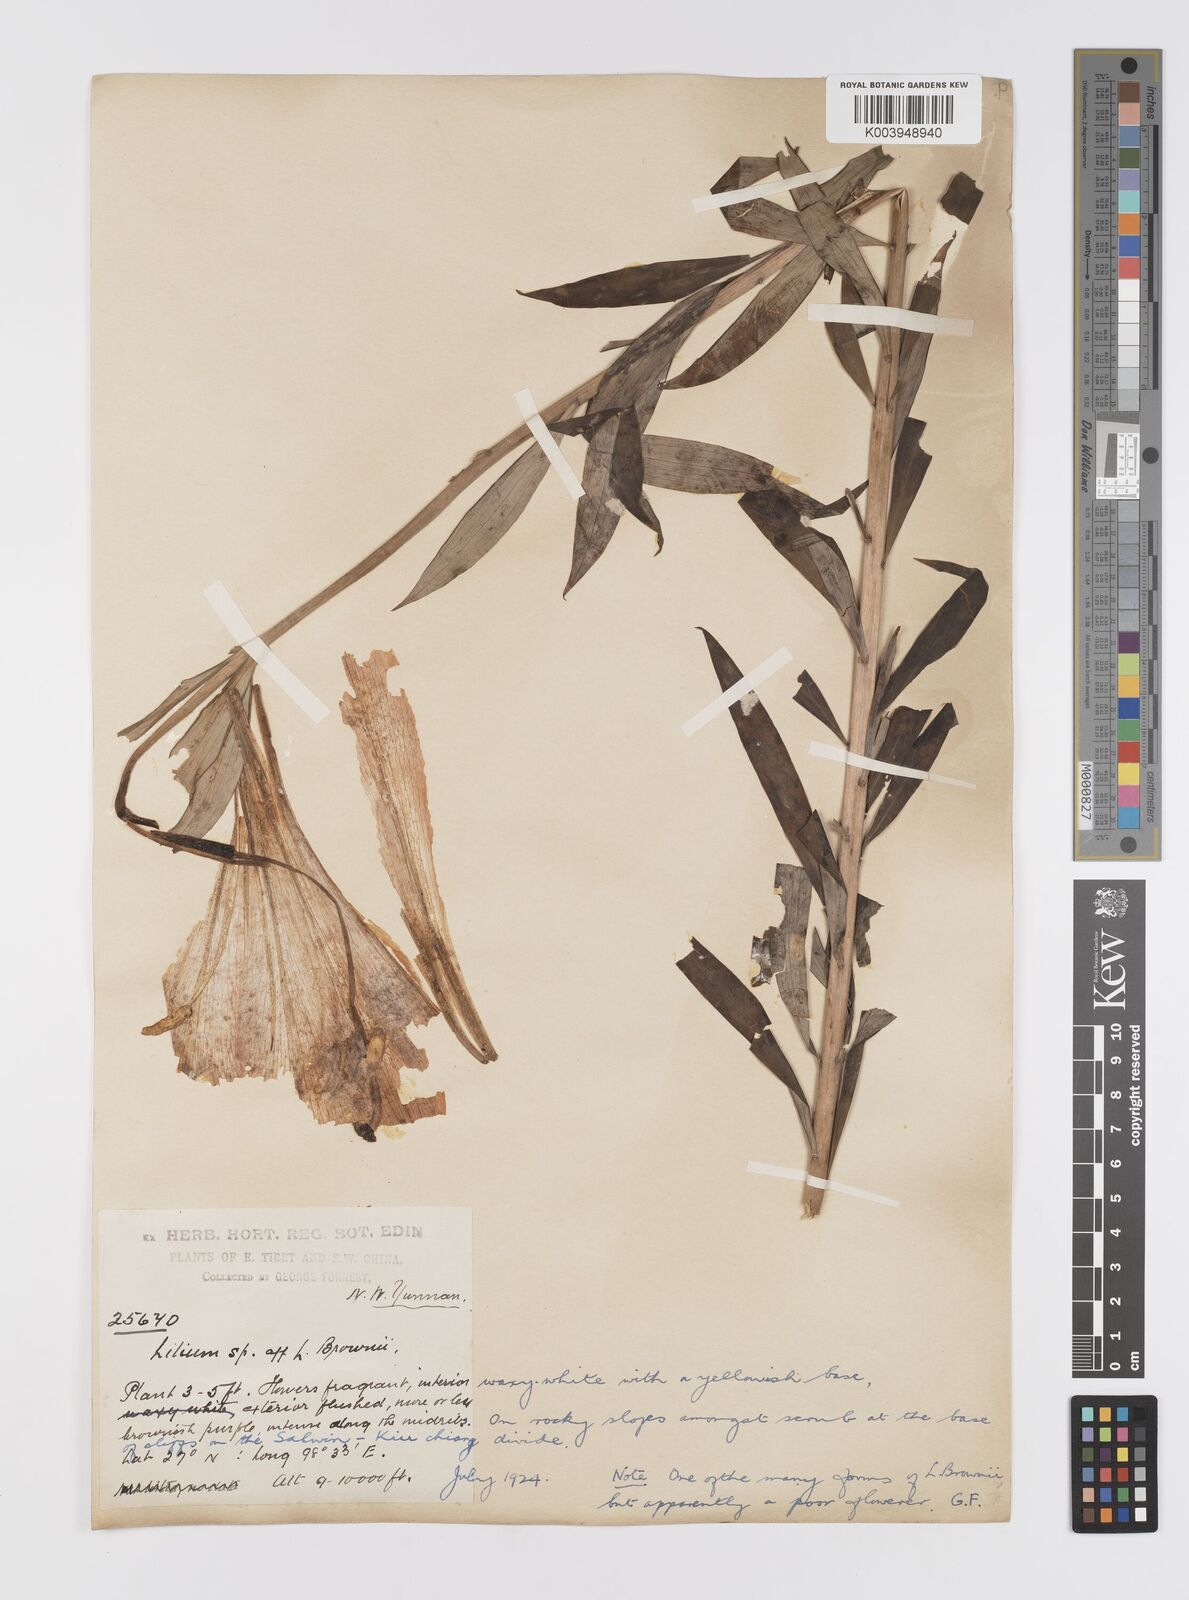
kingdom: Plantae
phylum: Tracheophyta
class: Liliopsida
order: Liliales
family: Liliaceae
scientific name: Liliaceae
